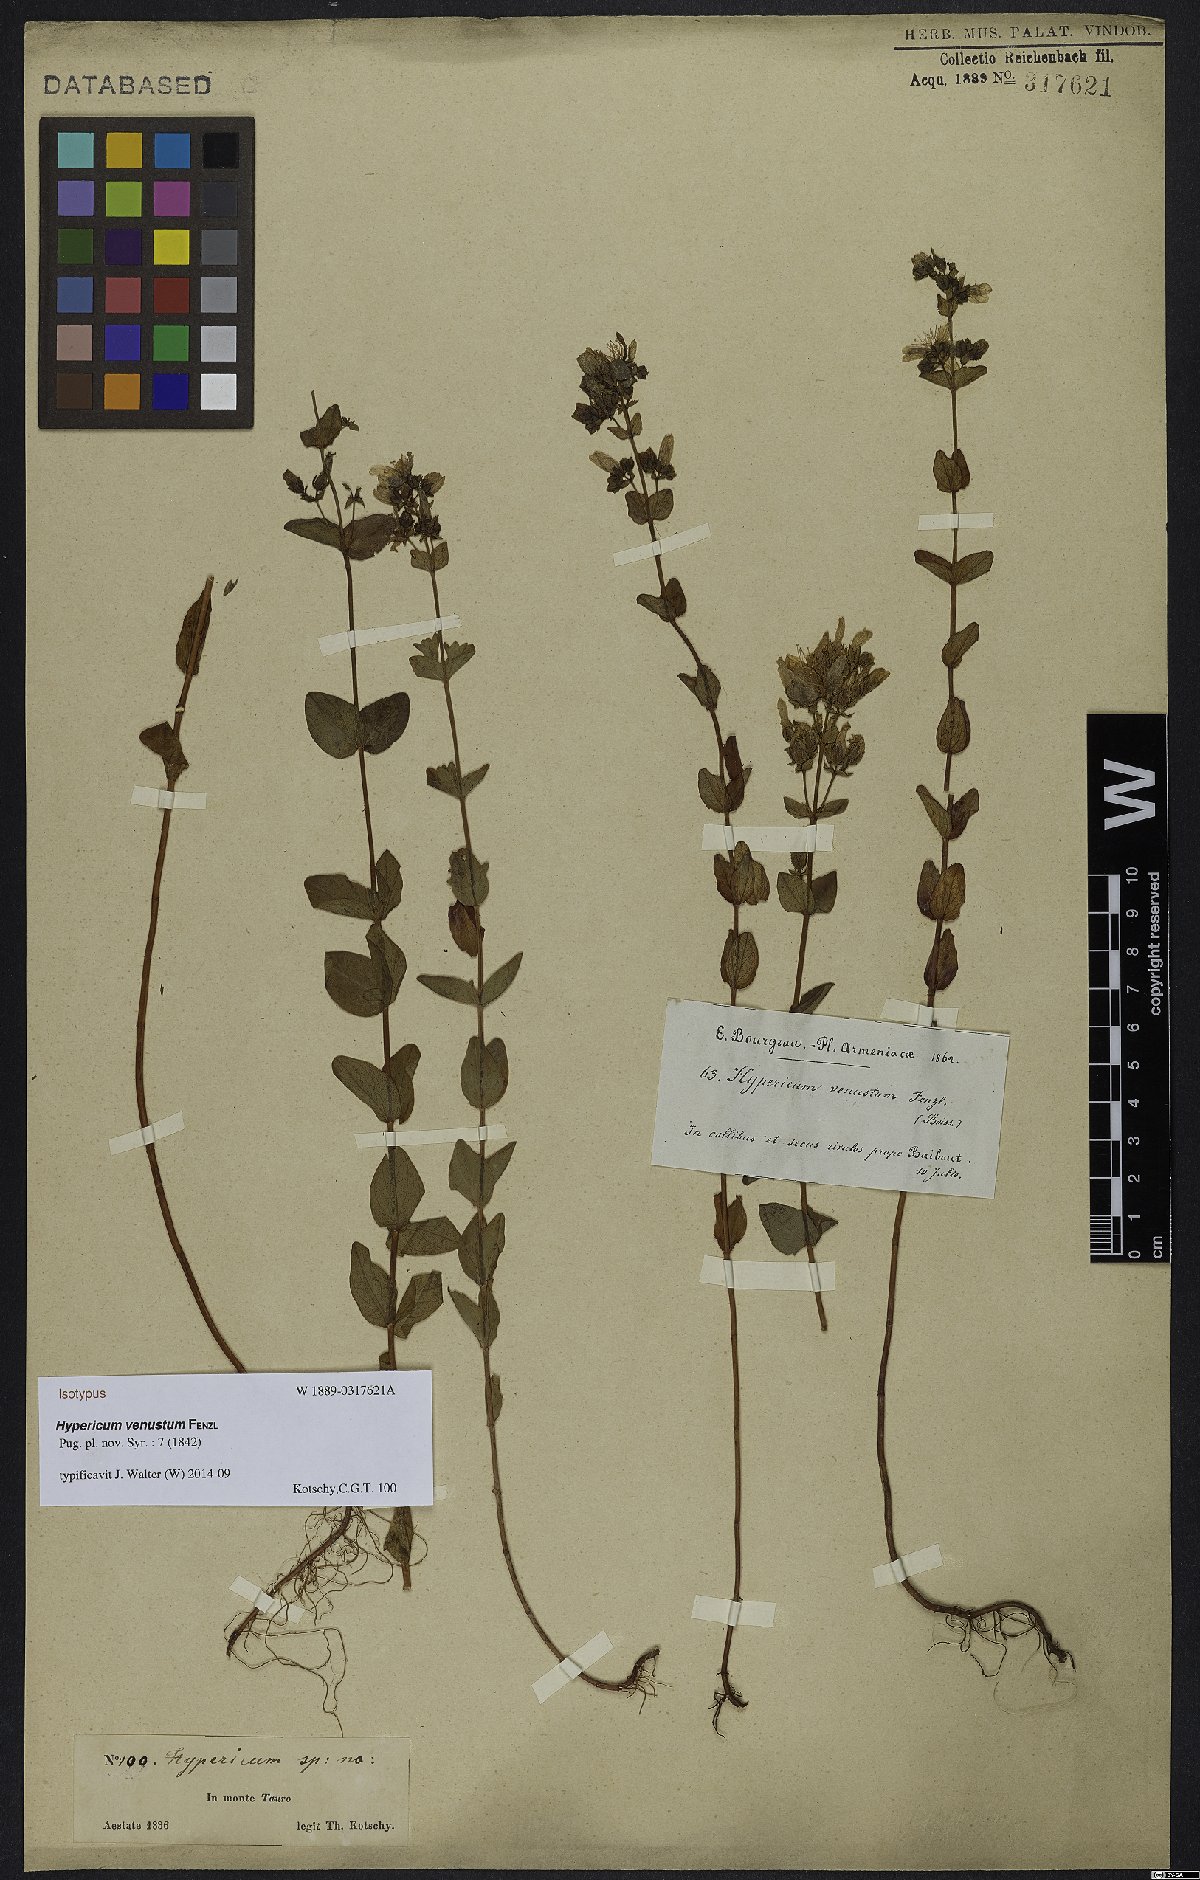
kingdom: Plantae
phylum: Tracheophyta
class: Magnoliopsida
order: Malpighiales
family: Hypericaceae
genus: Hypericum
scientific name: Hypericum venustum
